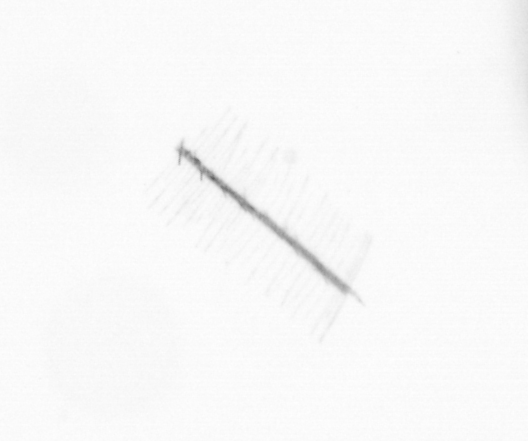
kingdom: Chromista
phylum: Ochrophyta
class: Bacillariophyceae
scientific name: Bacillariophyceae
